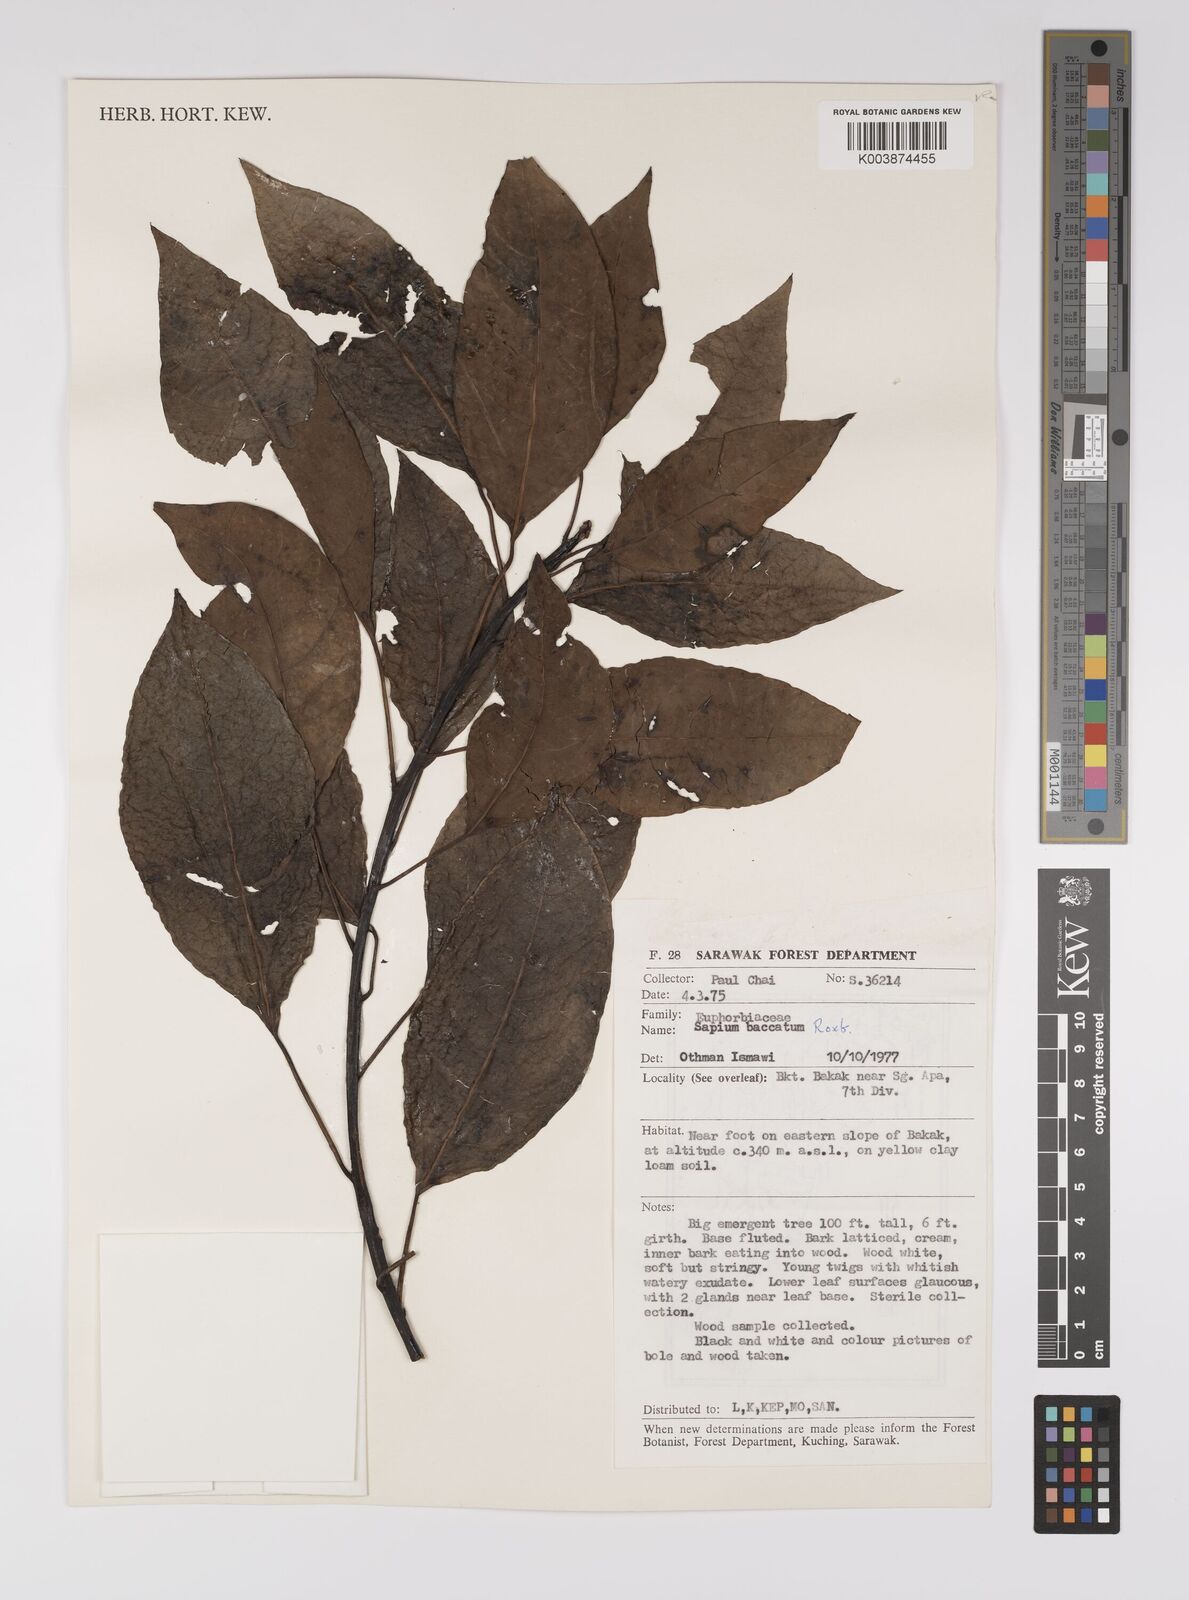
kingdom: Plantae
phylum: Tracheophyta
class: Magnoliopsida
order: Malpighiales
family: Euphorbiaceae
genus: Balakata
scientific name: Balakata baccata
